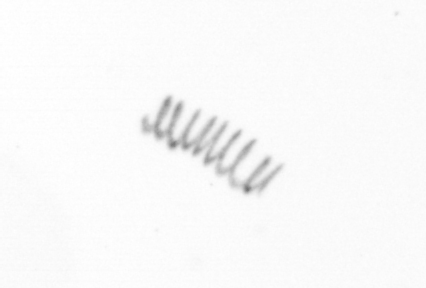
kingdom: Chromista
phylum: Ochrophyta
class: Bacillariophyceae
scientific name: Bacillariophyceae
